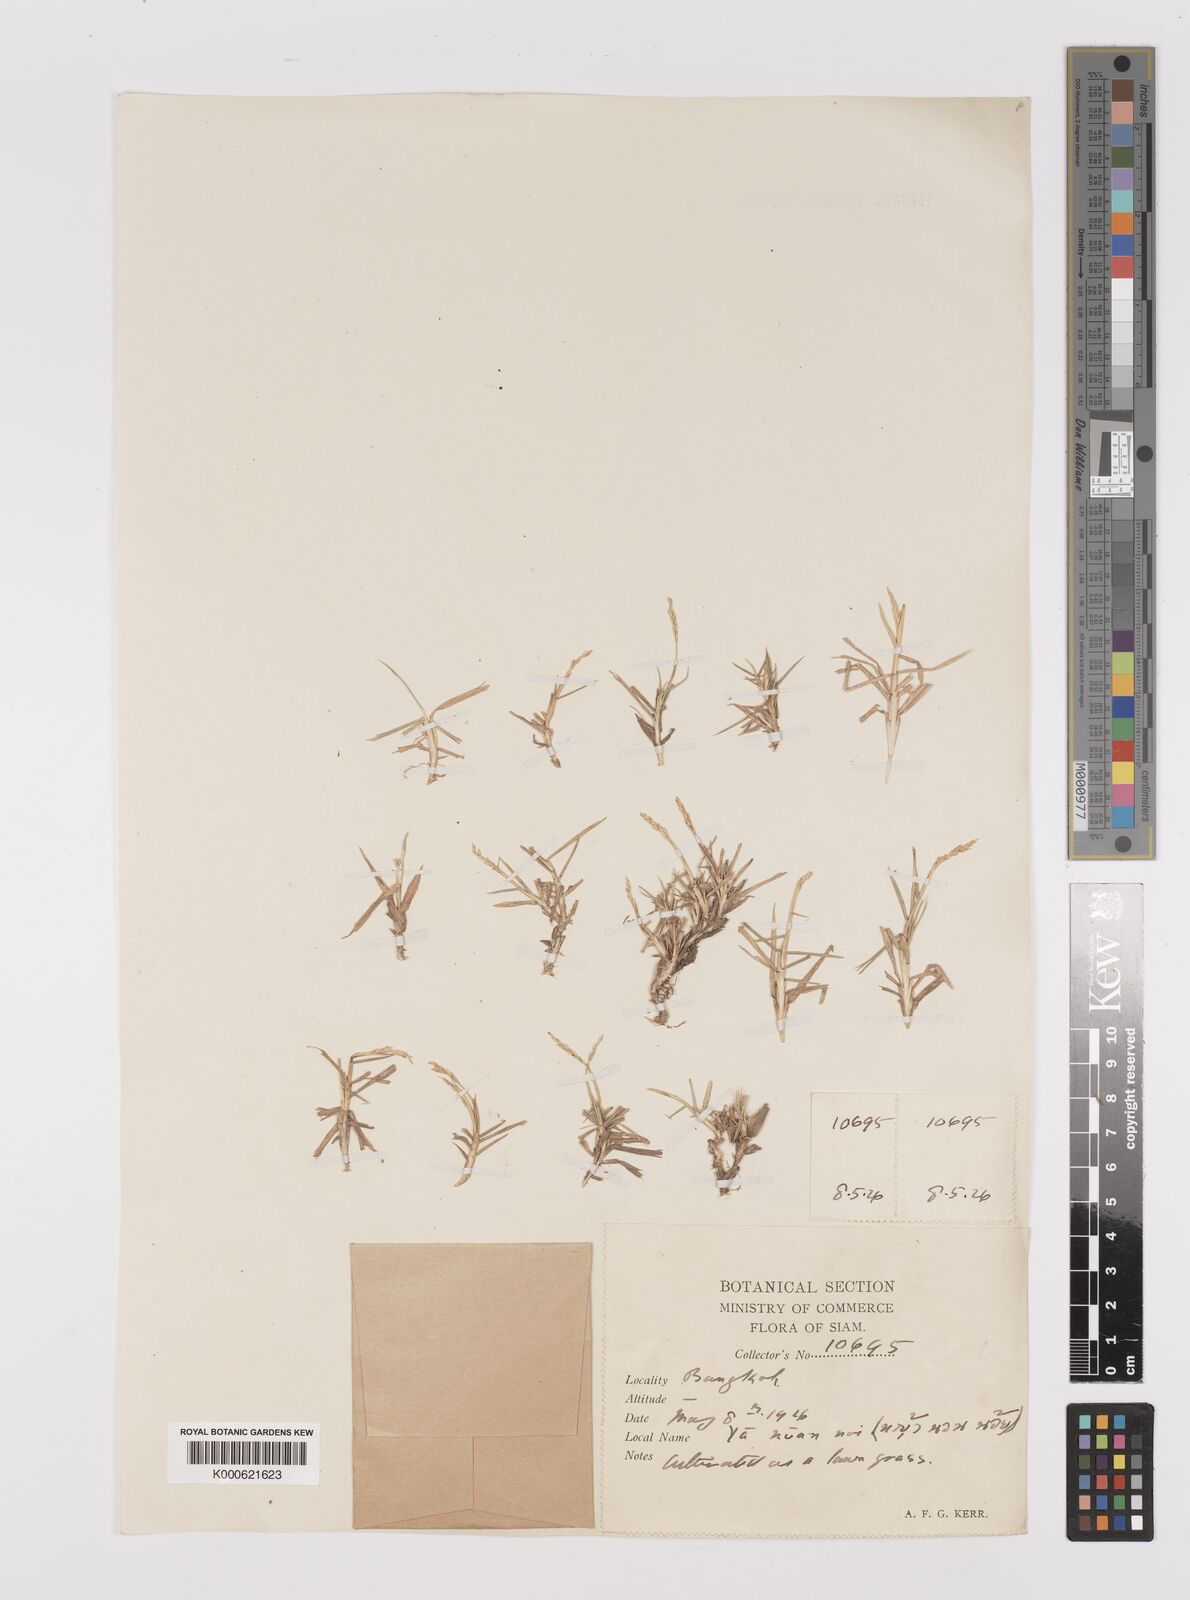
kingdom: Plantae
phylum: Tracheophyta
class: Liliopsida
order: Poales
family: Poaceae
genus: Zoysia
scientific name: Zoysia matrella
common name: Manila grass
